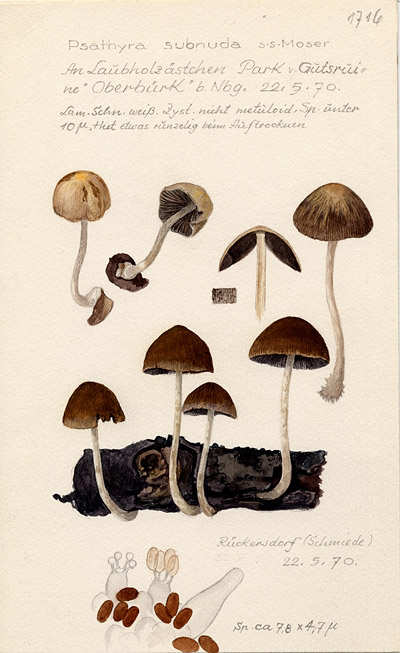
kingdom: Fungi
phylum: Basidiomycota
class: Agaricomycetes
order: Agaricales
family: Psathyrellaceae
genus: Psathyrella
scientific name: Psathyrella subnuda
